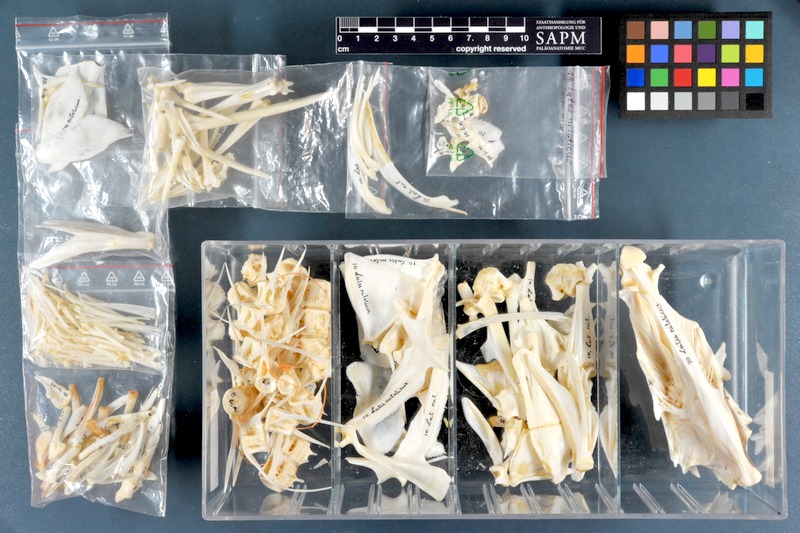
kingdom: Animalia
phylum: Chordata
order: Perciformes
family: Latidae
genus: Lates
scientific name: Lates niloticus
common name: Nile perch
